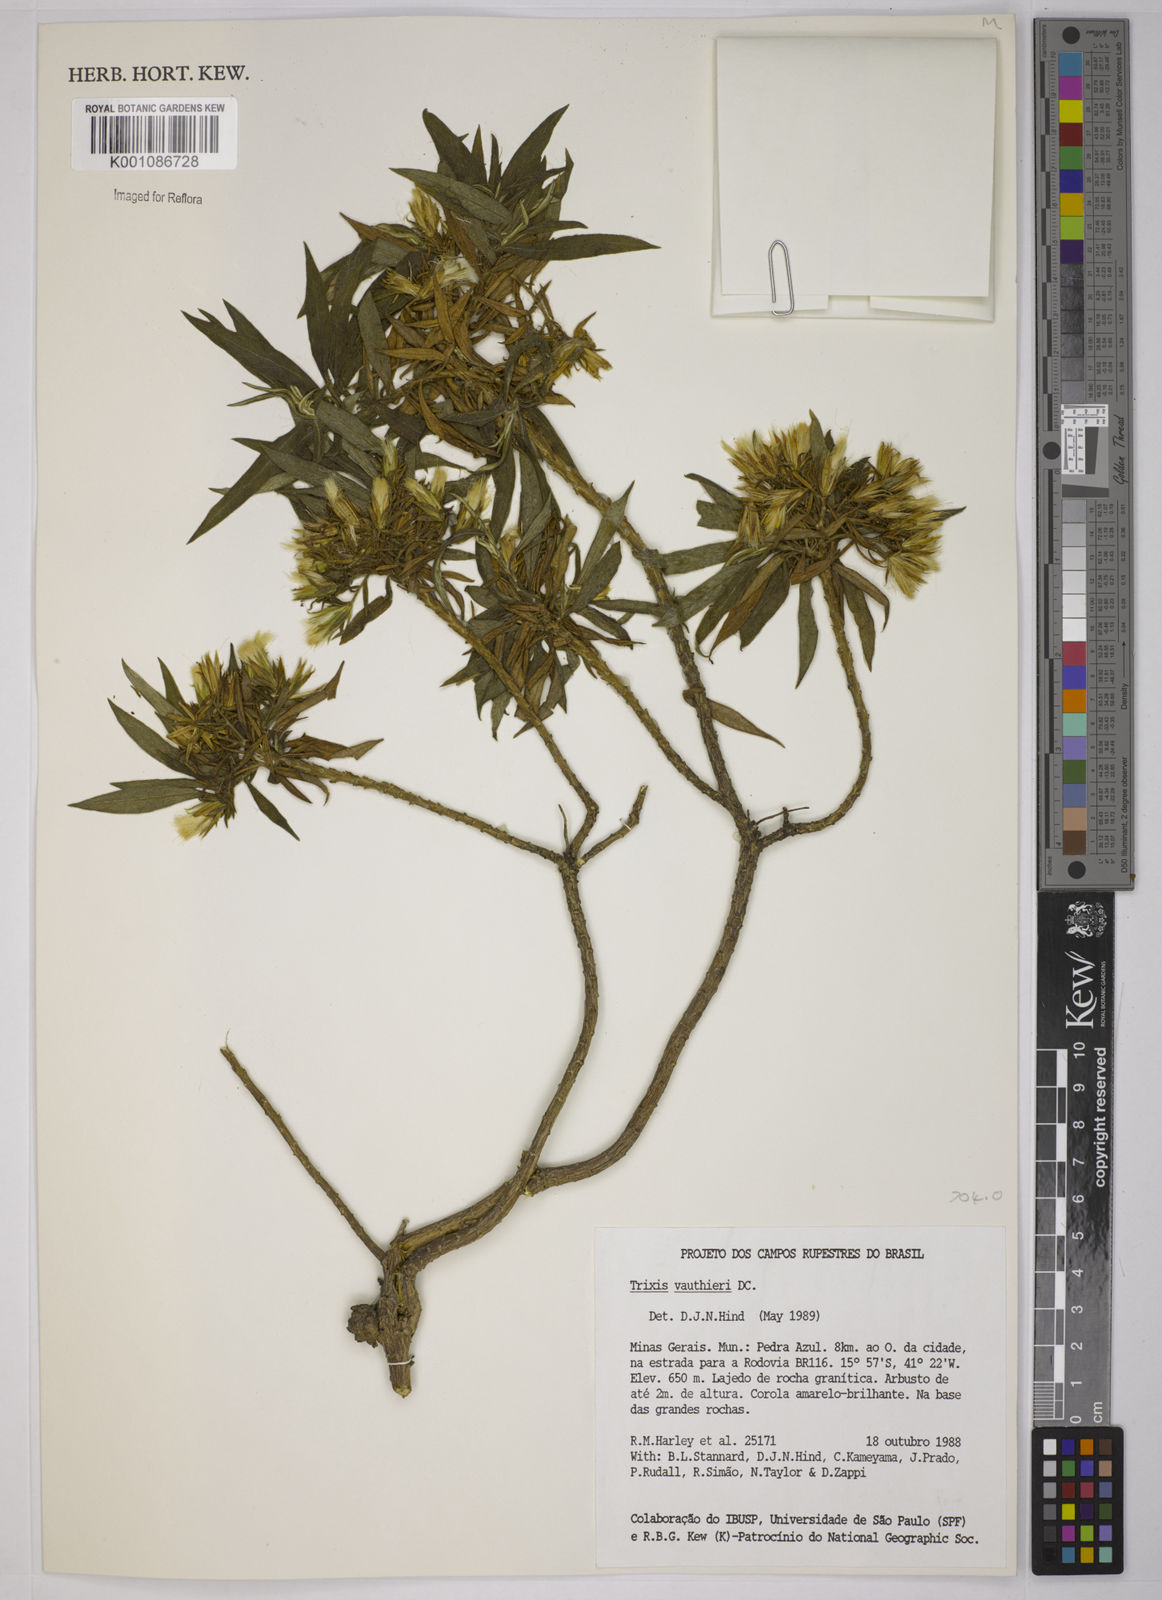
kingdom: Plantae
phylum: Tracheophyta
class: Magnoliopsida
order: Asterales
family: Asteraceae
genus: Trixis
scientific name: Trixis vauthieri
